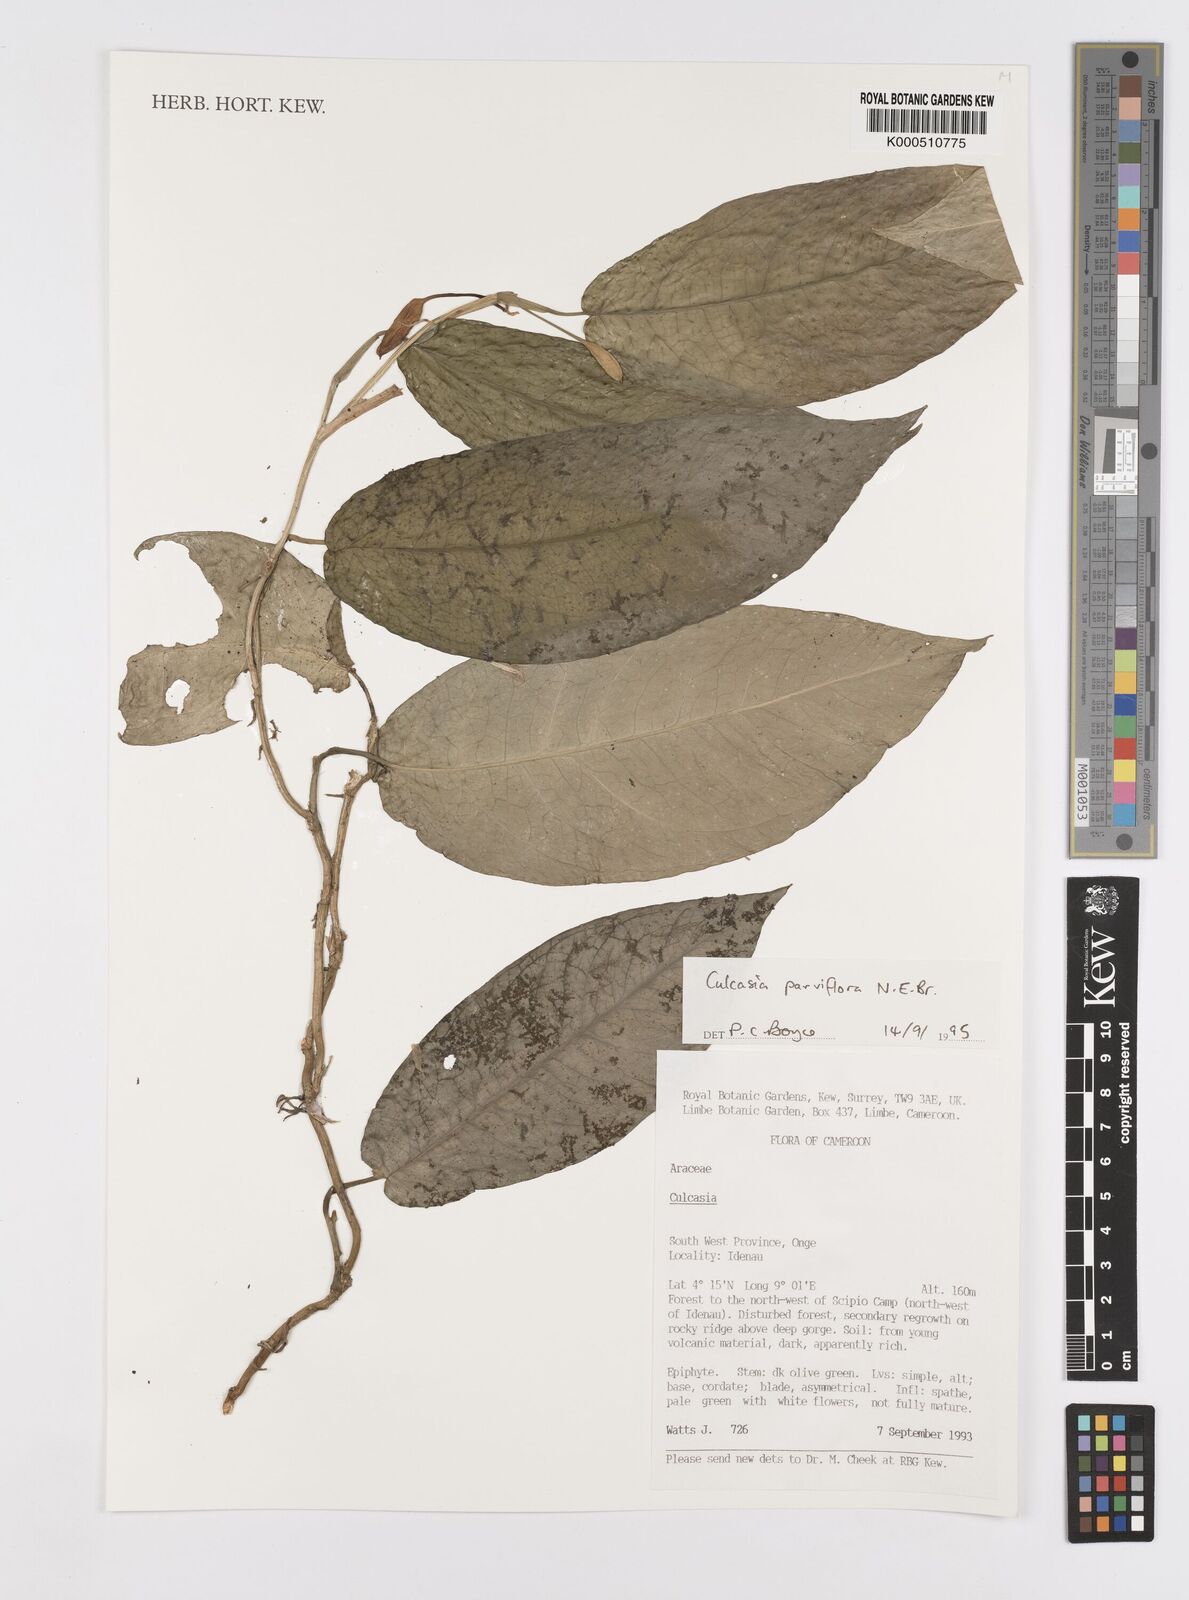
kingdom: Plantae
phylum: Tracheophyta
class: Liliopsida
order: Alismatales
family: Araceae
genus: Culcasia
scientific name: Culcasia parviflora
